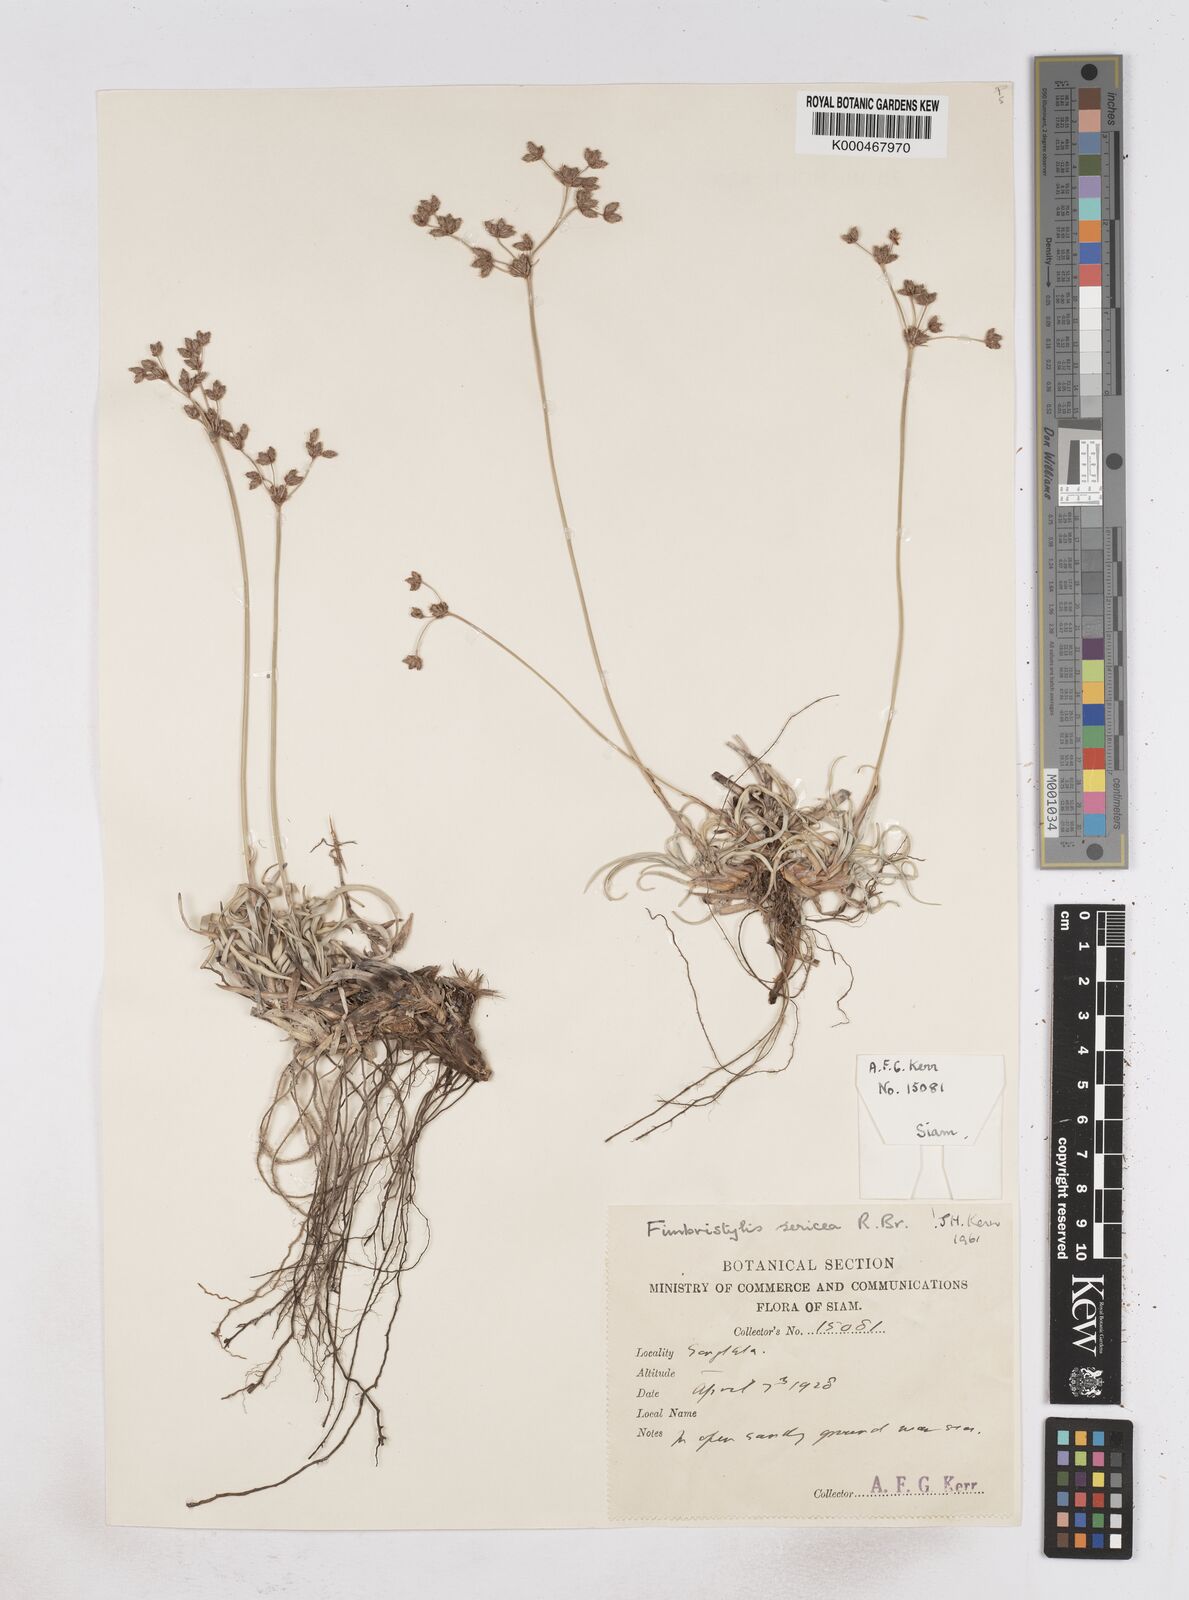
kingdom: Plantae
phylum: Tracheophyta
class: Liliopsida
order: Poales
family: Cyperaceae
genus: Fimbristylis
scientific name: Fimbristylis sericea
